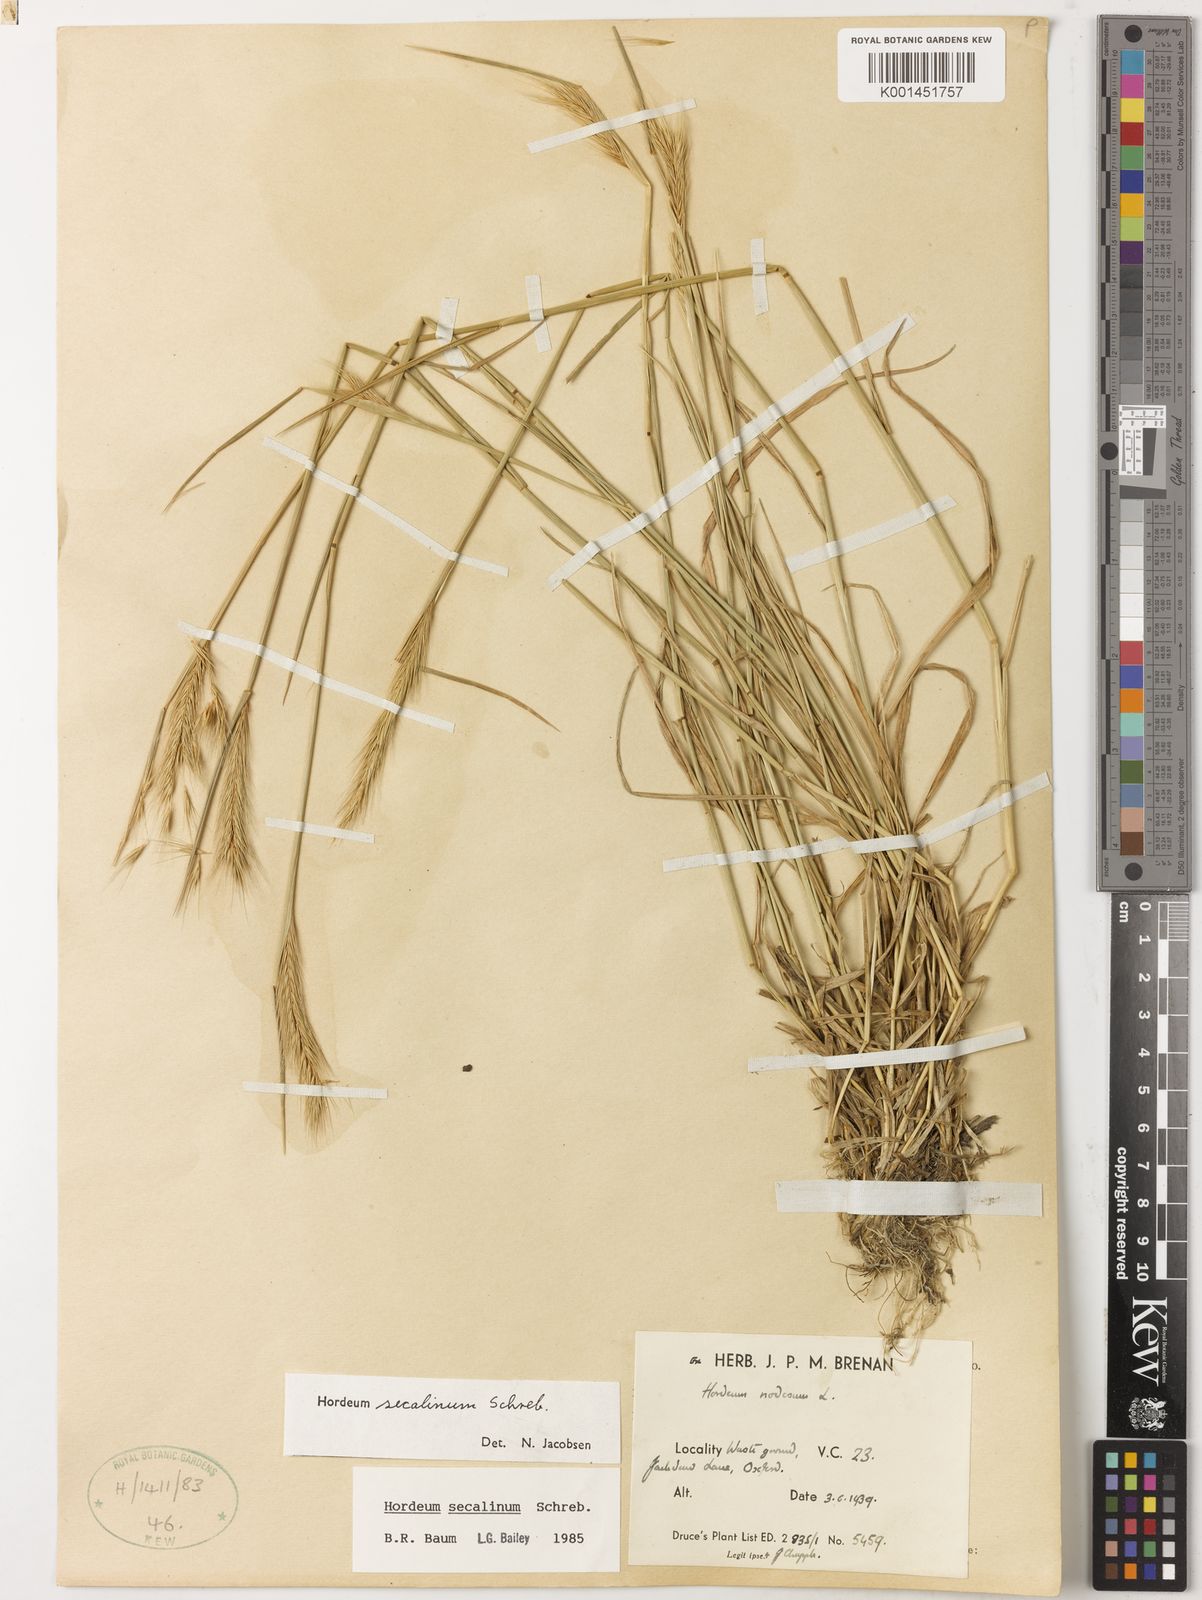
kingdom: Plantae
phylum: Tracheophyta
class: Liliopsida
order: Poales
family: Poaceae
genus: Hordeum
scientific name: Hordeum secalinum
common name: Meadow barley
